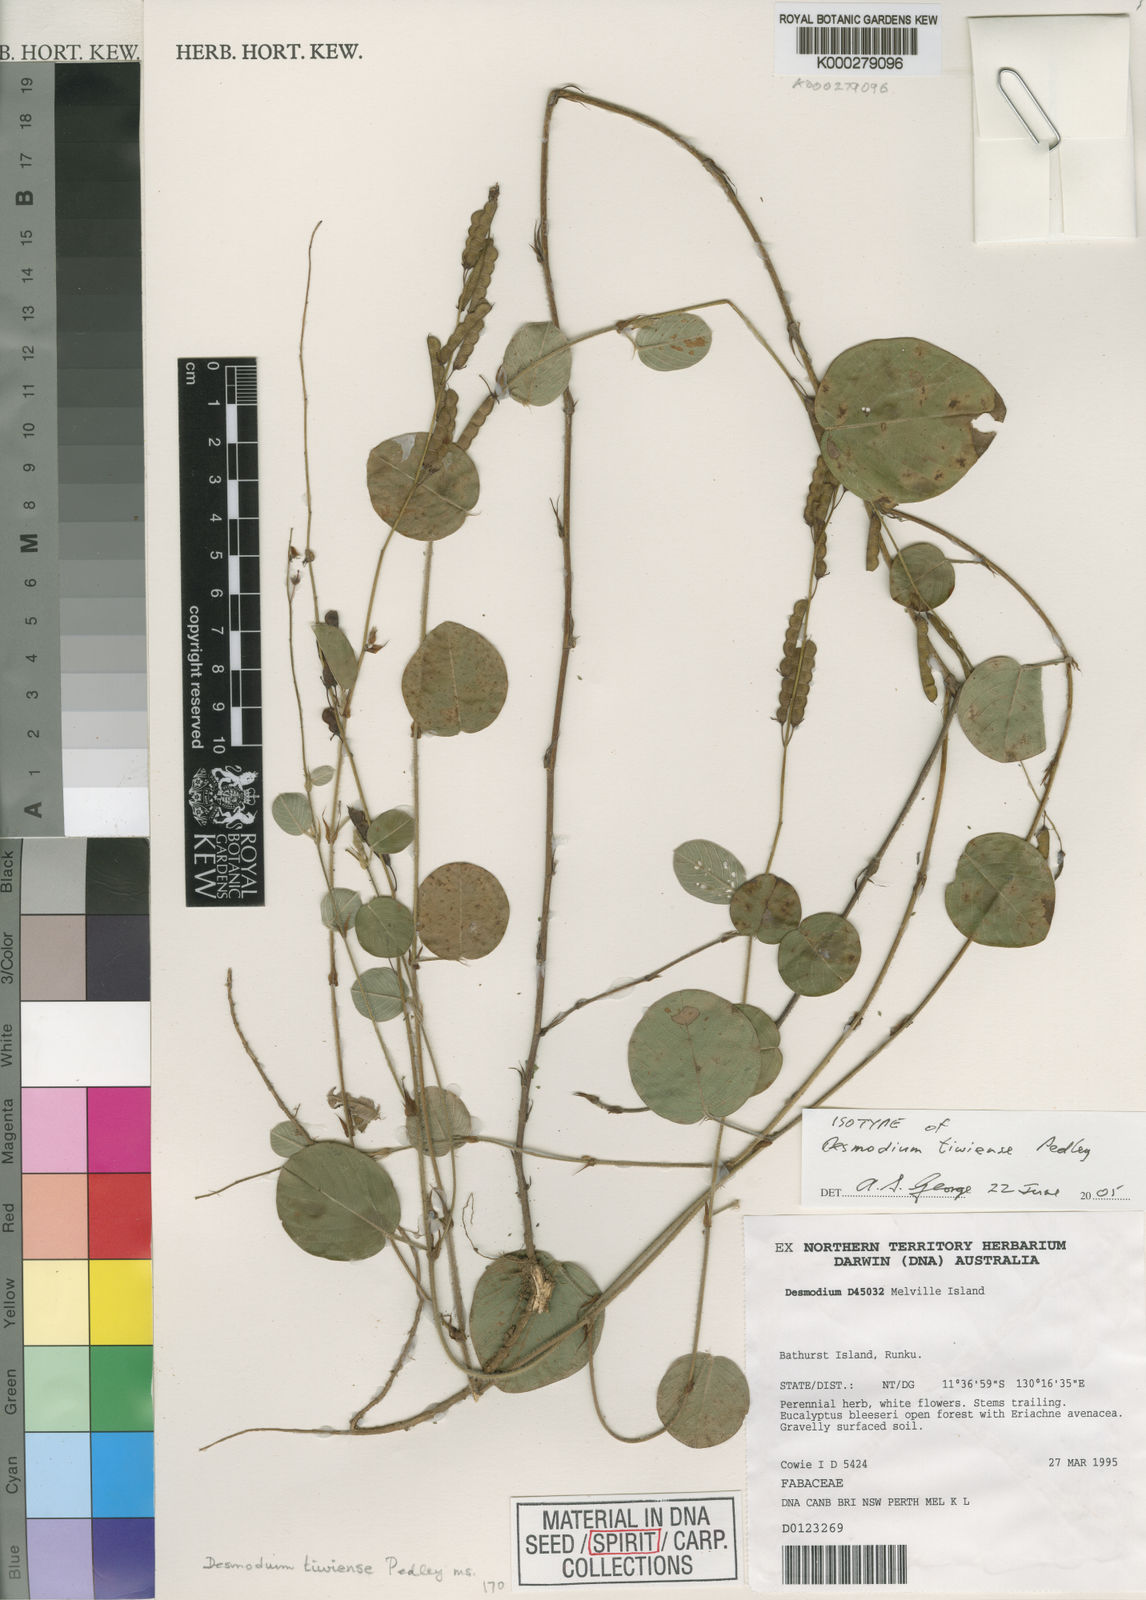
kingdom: Plantae
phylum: Tracheophyta
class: Magnoliopsida
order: Fabales
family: Fabaceae
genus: Grona
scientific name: Grona tiwiensis
